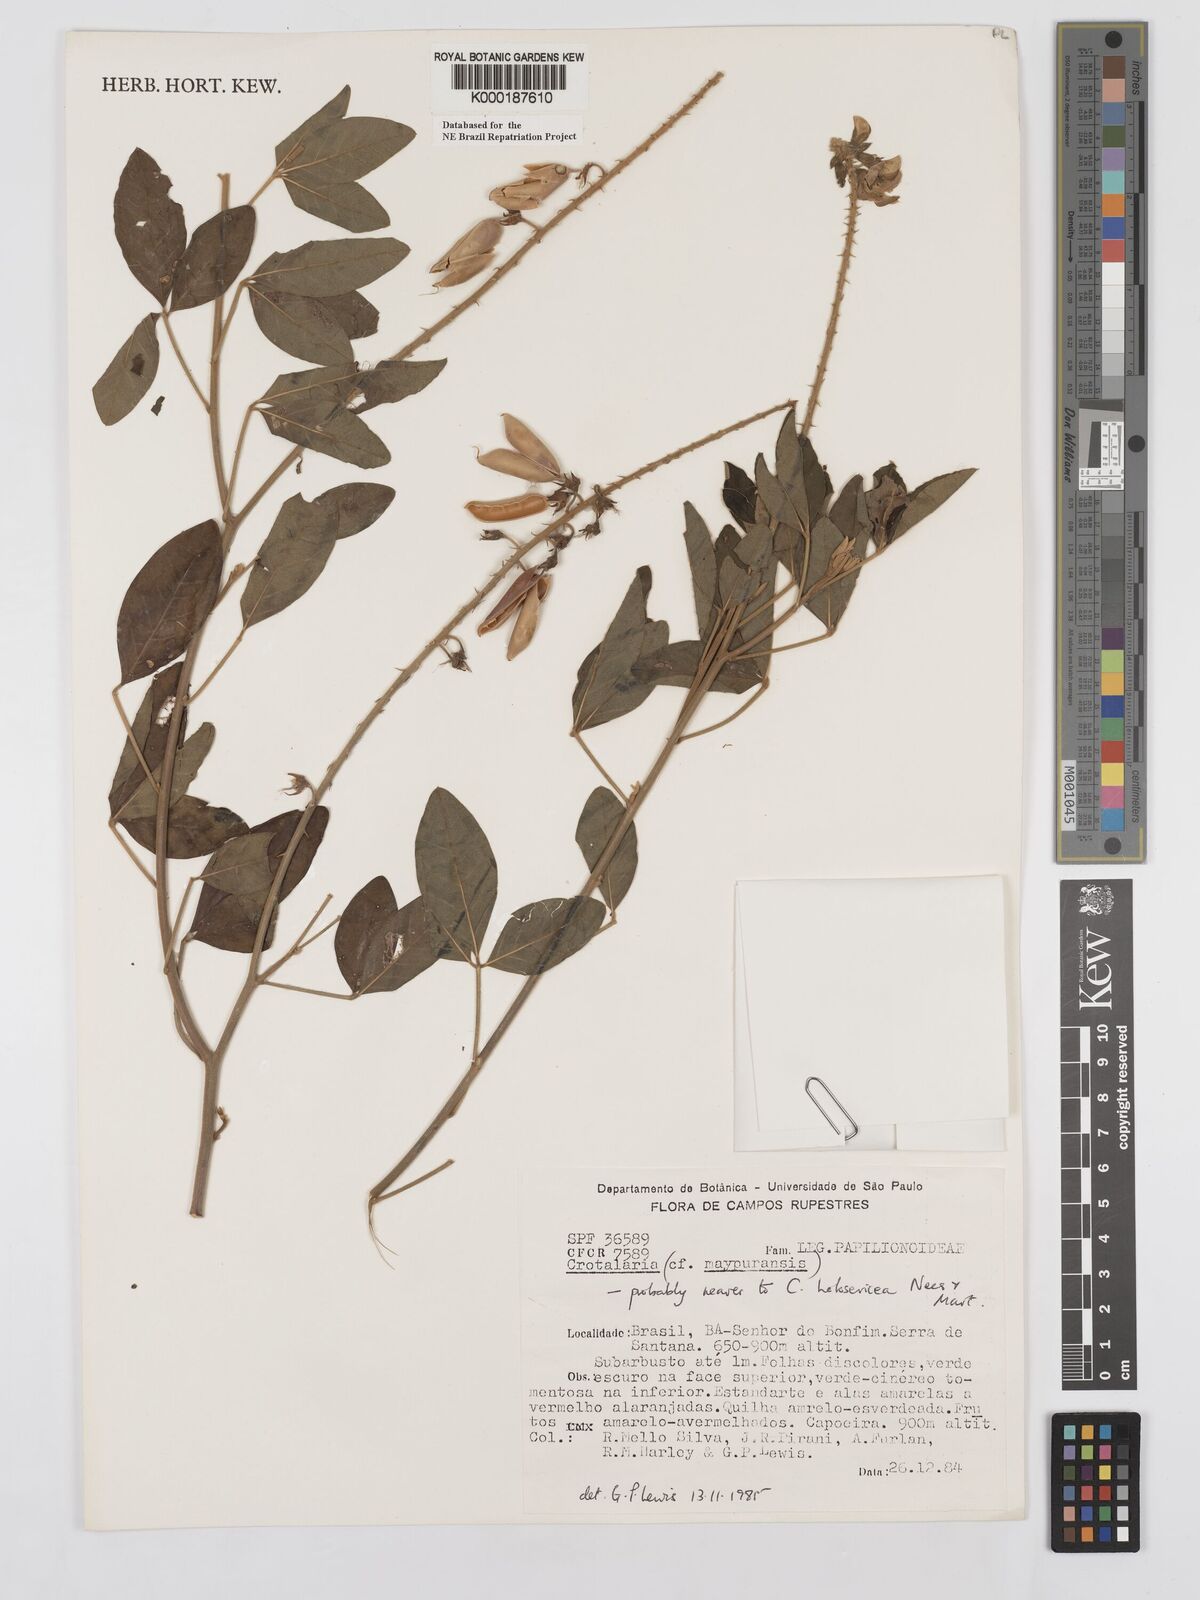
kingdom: Plantae
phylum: Tracheophyta
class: Magnoliopsida
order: Fabales
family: Fabaceae
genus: Crotalaria
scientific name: Crotalaria holosericea
